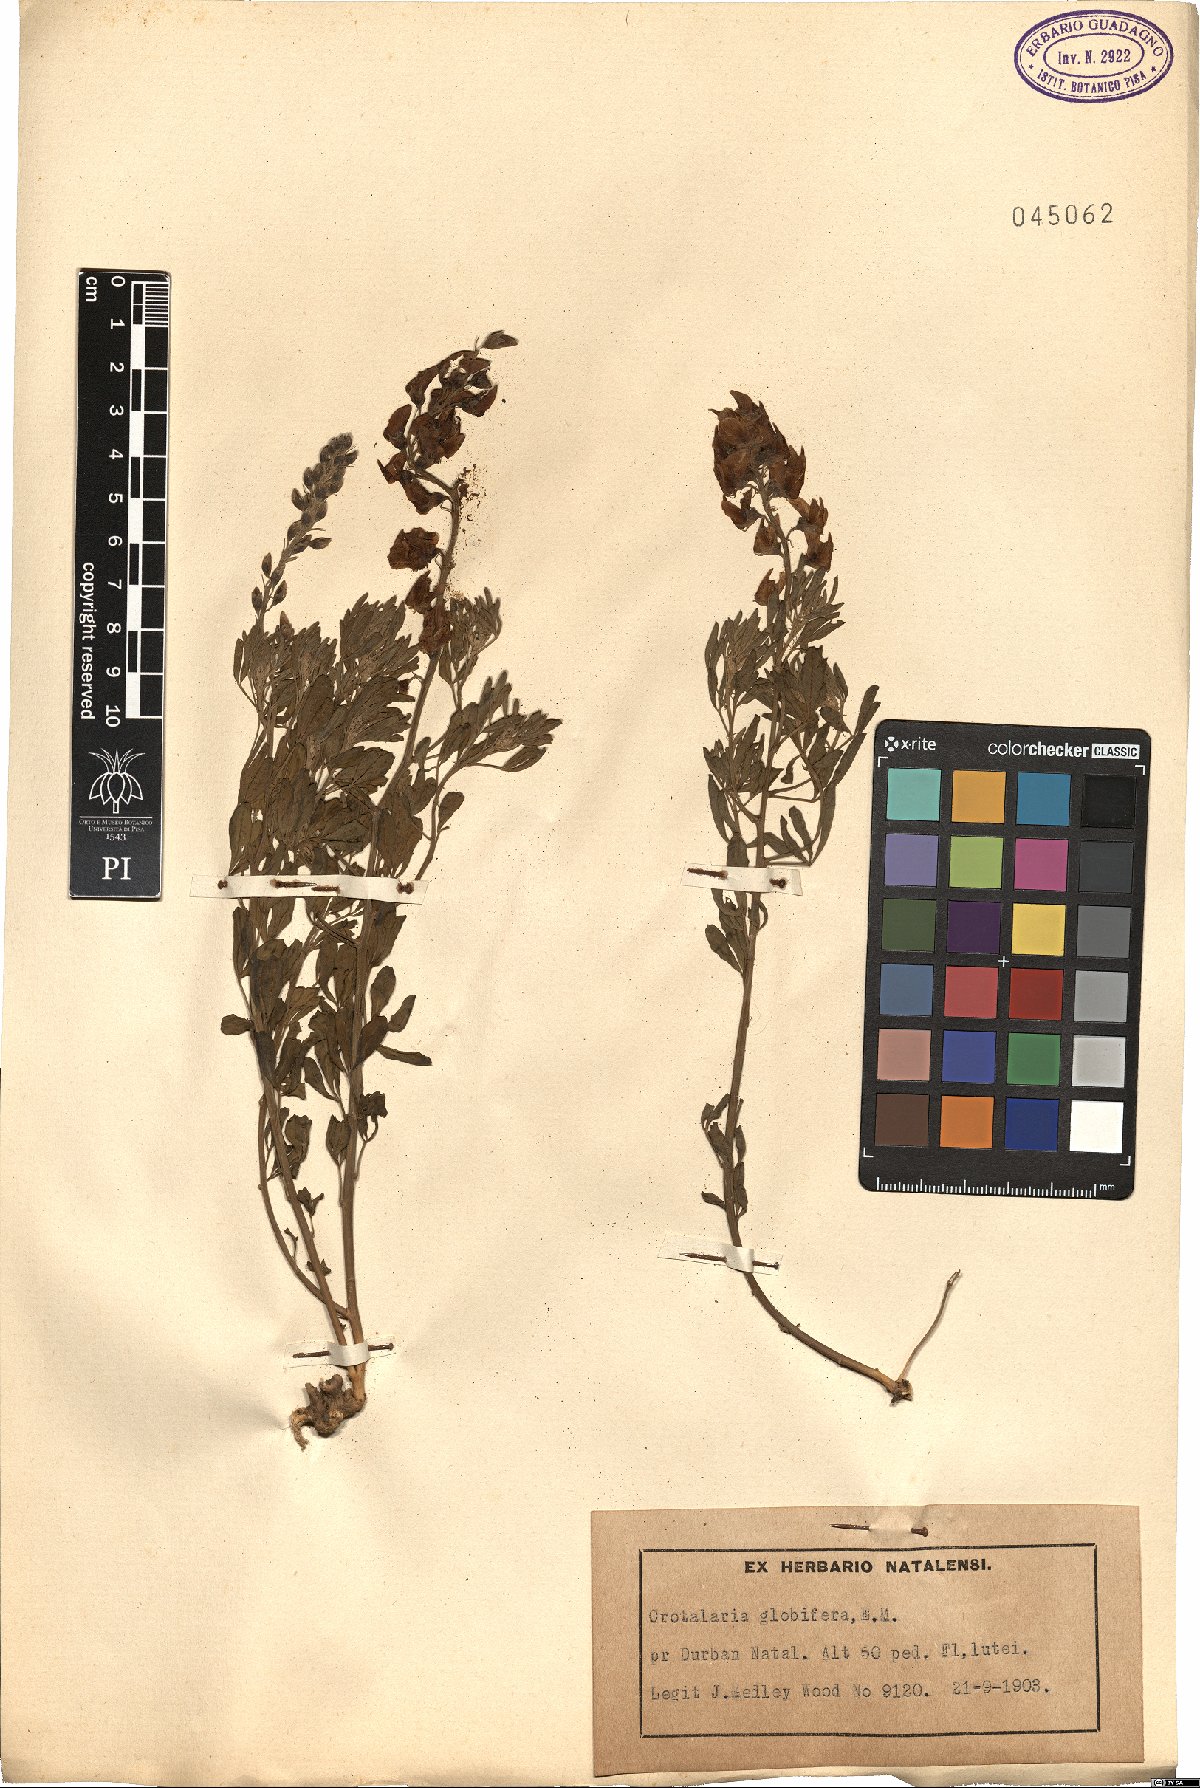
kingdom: Plantae
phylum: Tracheophyta
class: Magnoliopsida
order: Fabales
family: Fabaceae
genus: Crotalaria
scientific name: Crotalaria globifera
